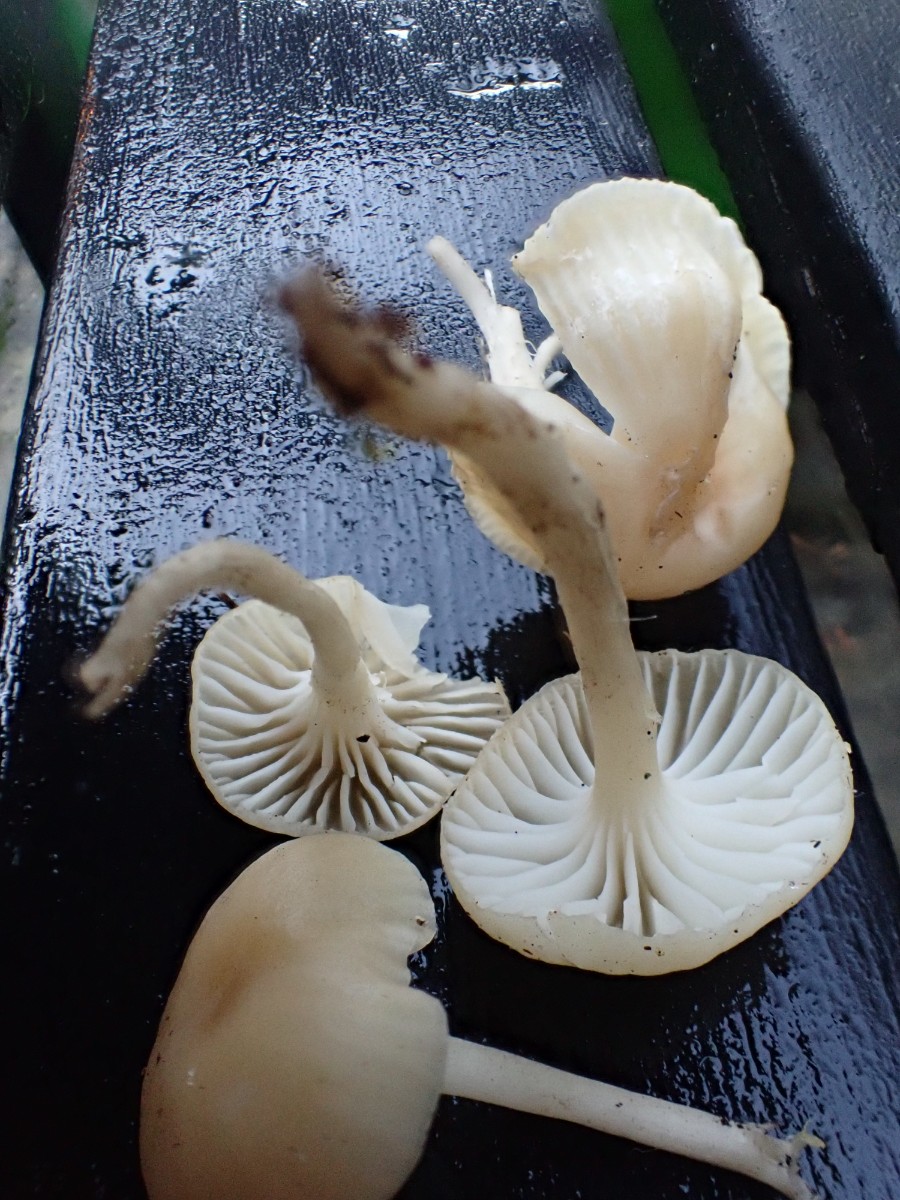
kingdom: Fungi
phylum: Basidiomycota
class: Agaricomycetes
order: Agaricales
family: Hygrophoraceae
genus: Cuphophyllus
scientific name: Cuphophyllus russocoriaceus
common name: ruslæder-vokshat
